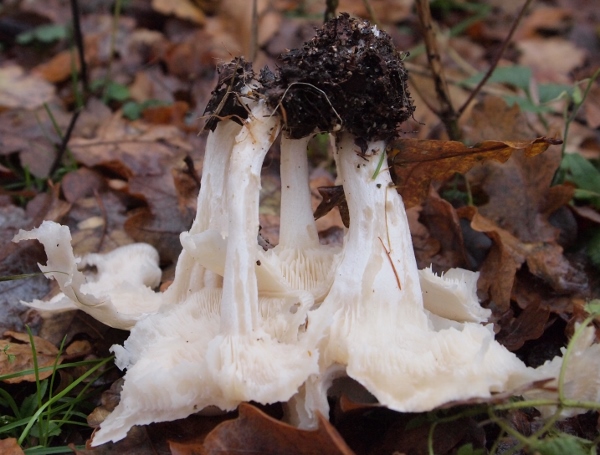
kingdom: Fungi
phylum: Basidiomycota
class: Agaricomycetes
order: Agaricales
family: Tricholomataceae
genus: Leucocybe
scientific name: Leucocybe connata
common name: knippe-tragthat
